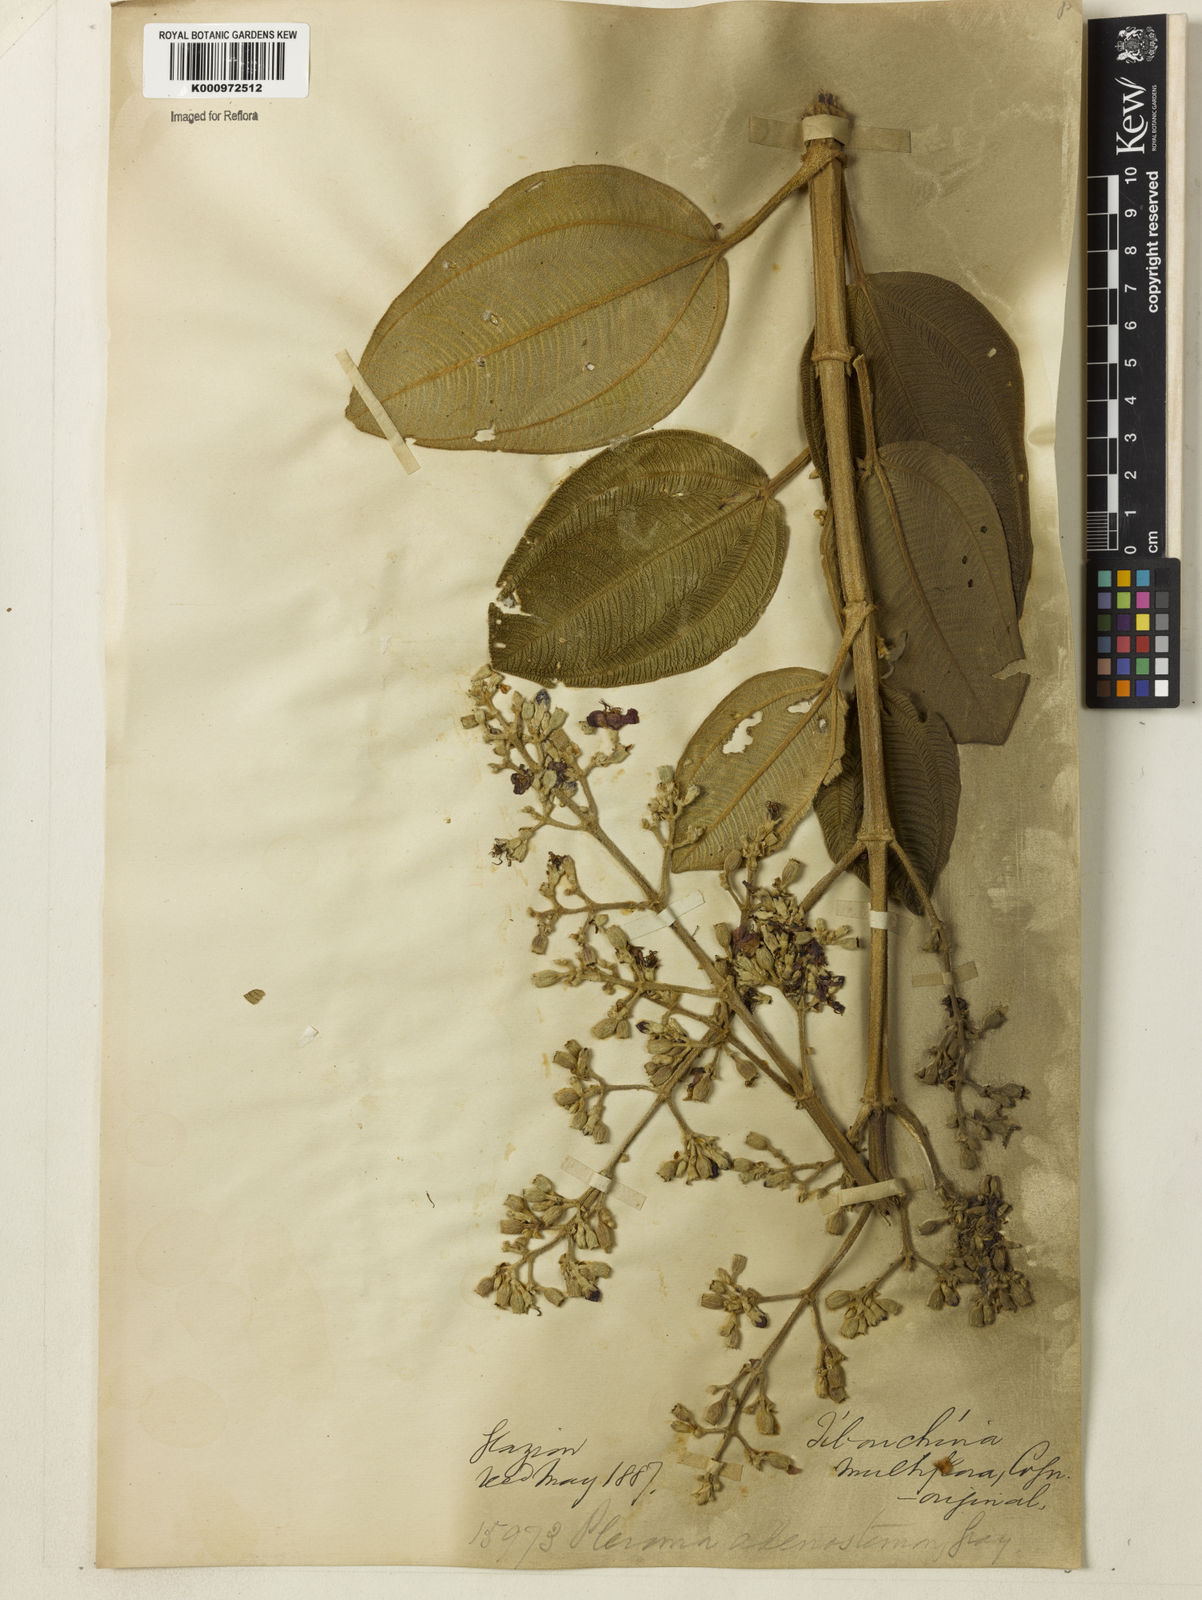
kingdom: Plantae
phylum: Tracheophyta
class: Magnoliopsida
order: Myrtales
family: Melastomataceae
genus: Pleroma
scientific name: Pleroma heteromallum
